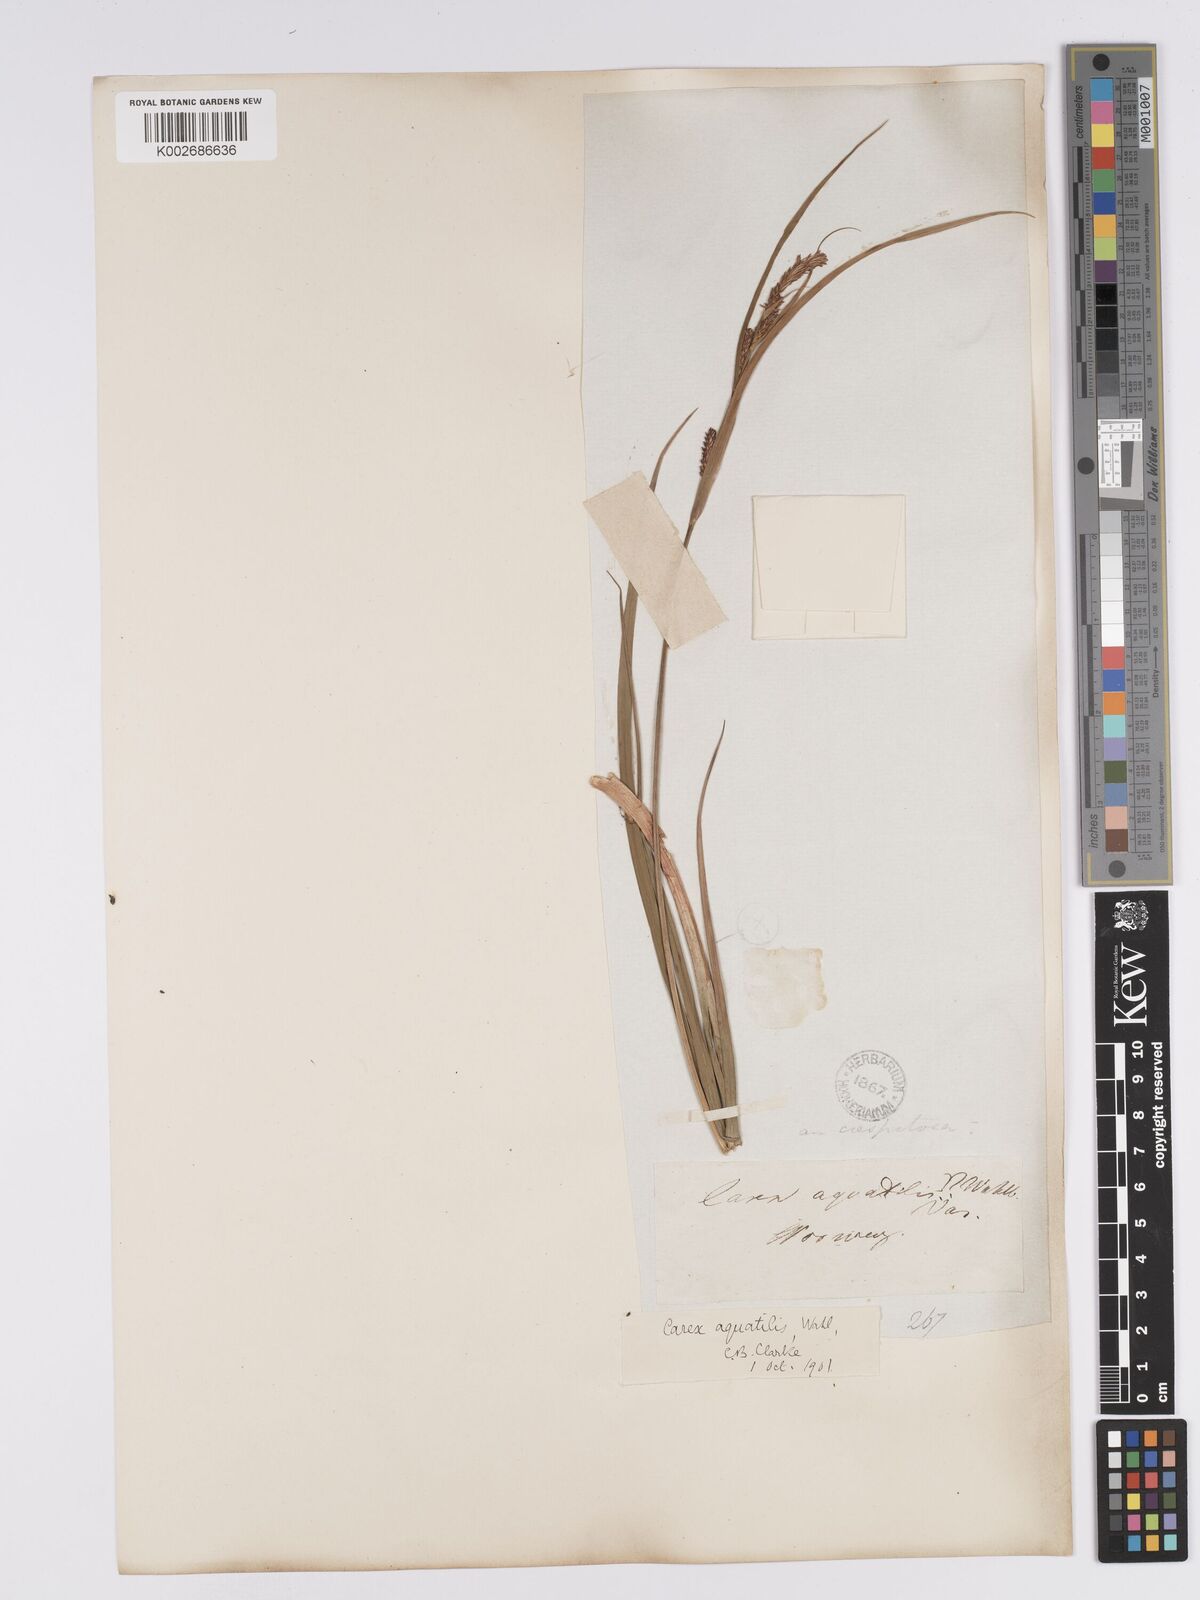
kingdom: Plantae
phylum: Tracheophyta
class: Liliopsida
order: Poales
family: Cyperaceae
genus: Carex
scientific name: Carex aquatilis
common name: Water sedge
